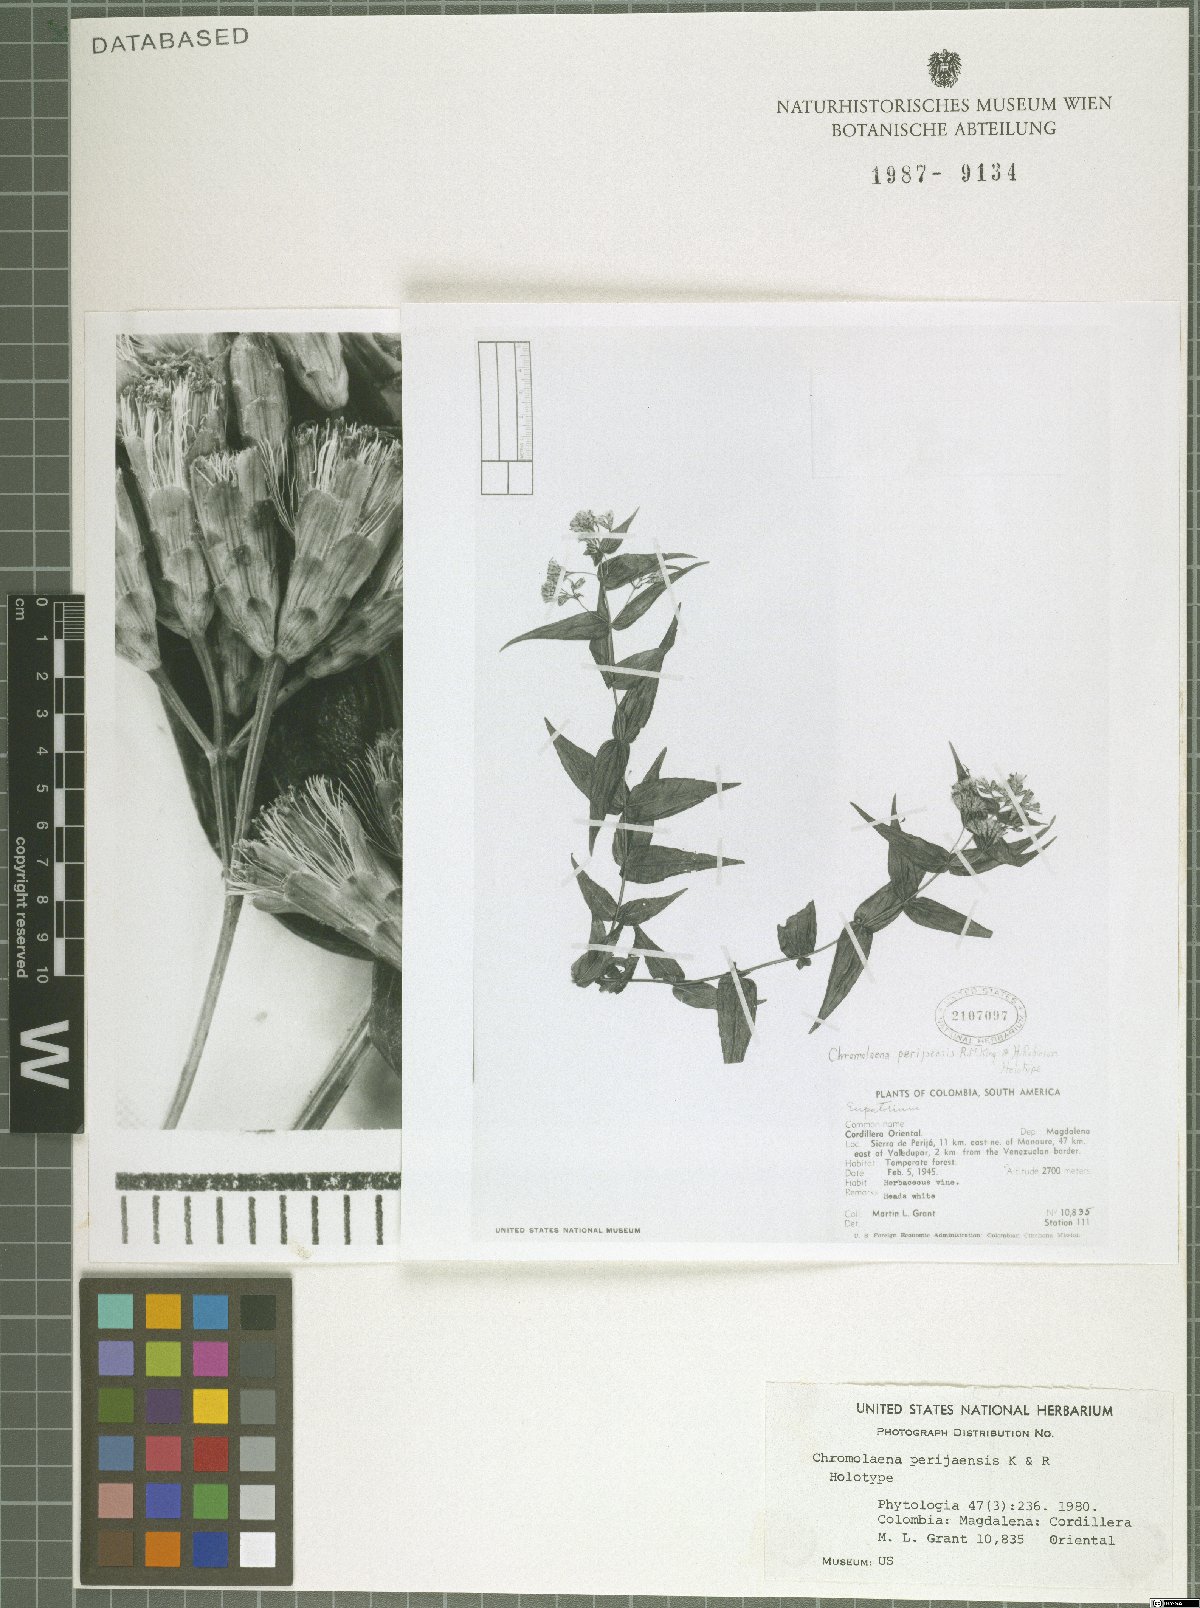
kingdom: Plantae
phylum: Tracheophyta
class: Magnoliopsida
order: Asterales
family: Asteraceae
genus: Chromolaena
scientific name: Chromolaena perijaensis
